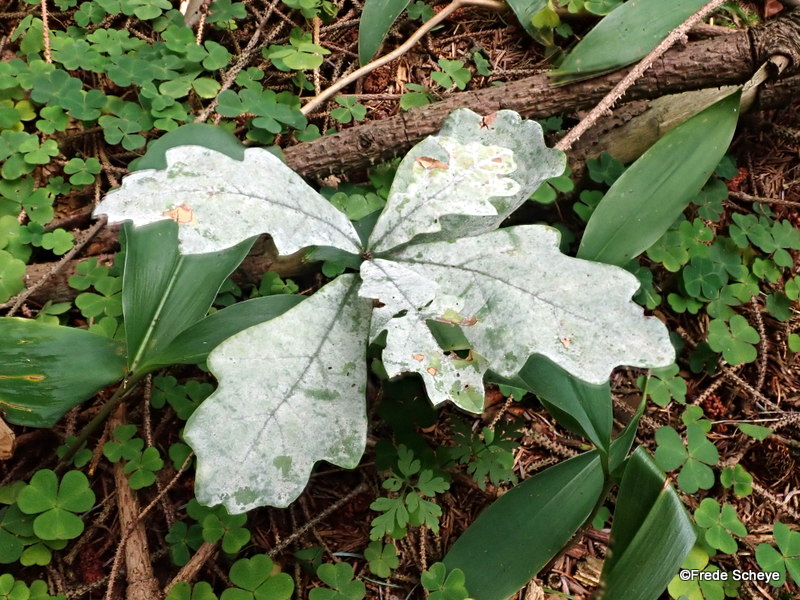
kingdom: Fungi
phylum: Ascomycota
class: Leotiomycetes
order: Helotiales
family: Erysiphaceae
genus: Erysiphe
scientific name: Erysiphe alphitoides
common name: ege-meldug
